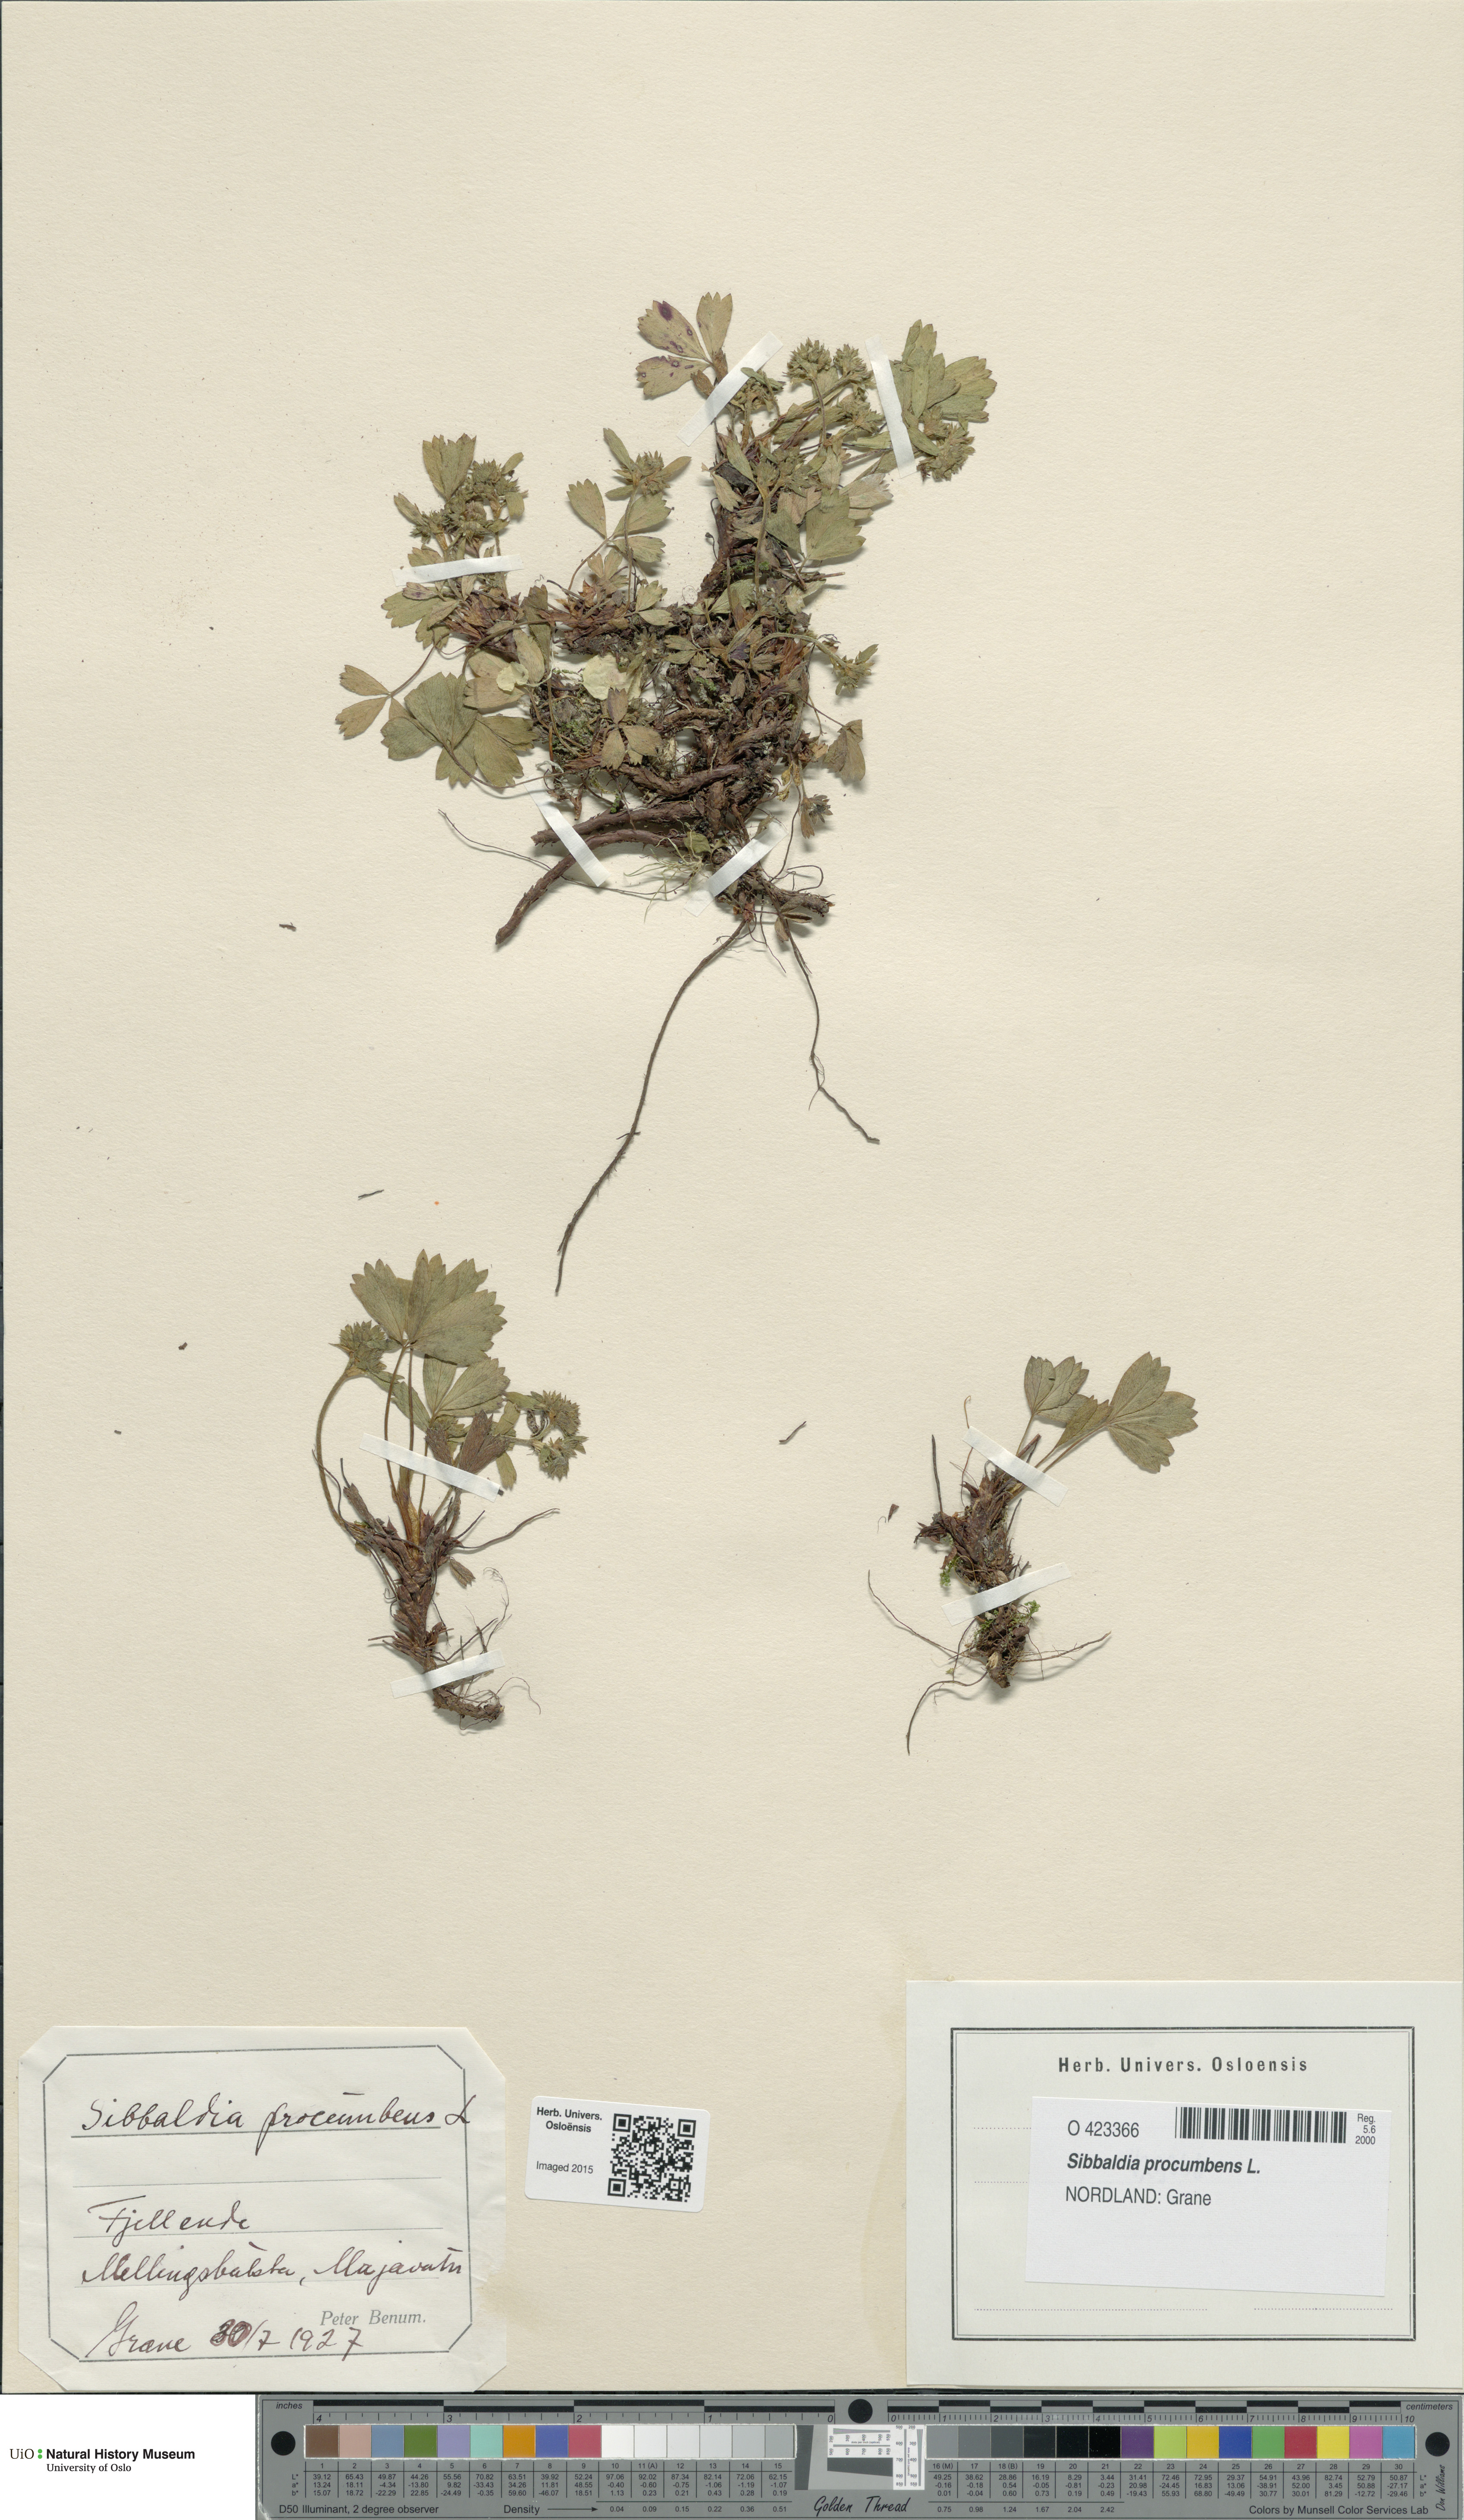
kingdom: Plantae
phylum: Tracheophyta
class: Magnoliopsida
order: Rosales
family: Rosaceae
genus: Sibbaldia
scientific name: Sibbaldia procumbens
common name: Creeping sibbaldia
